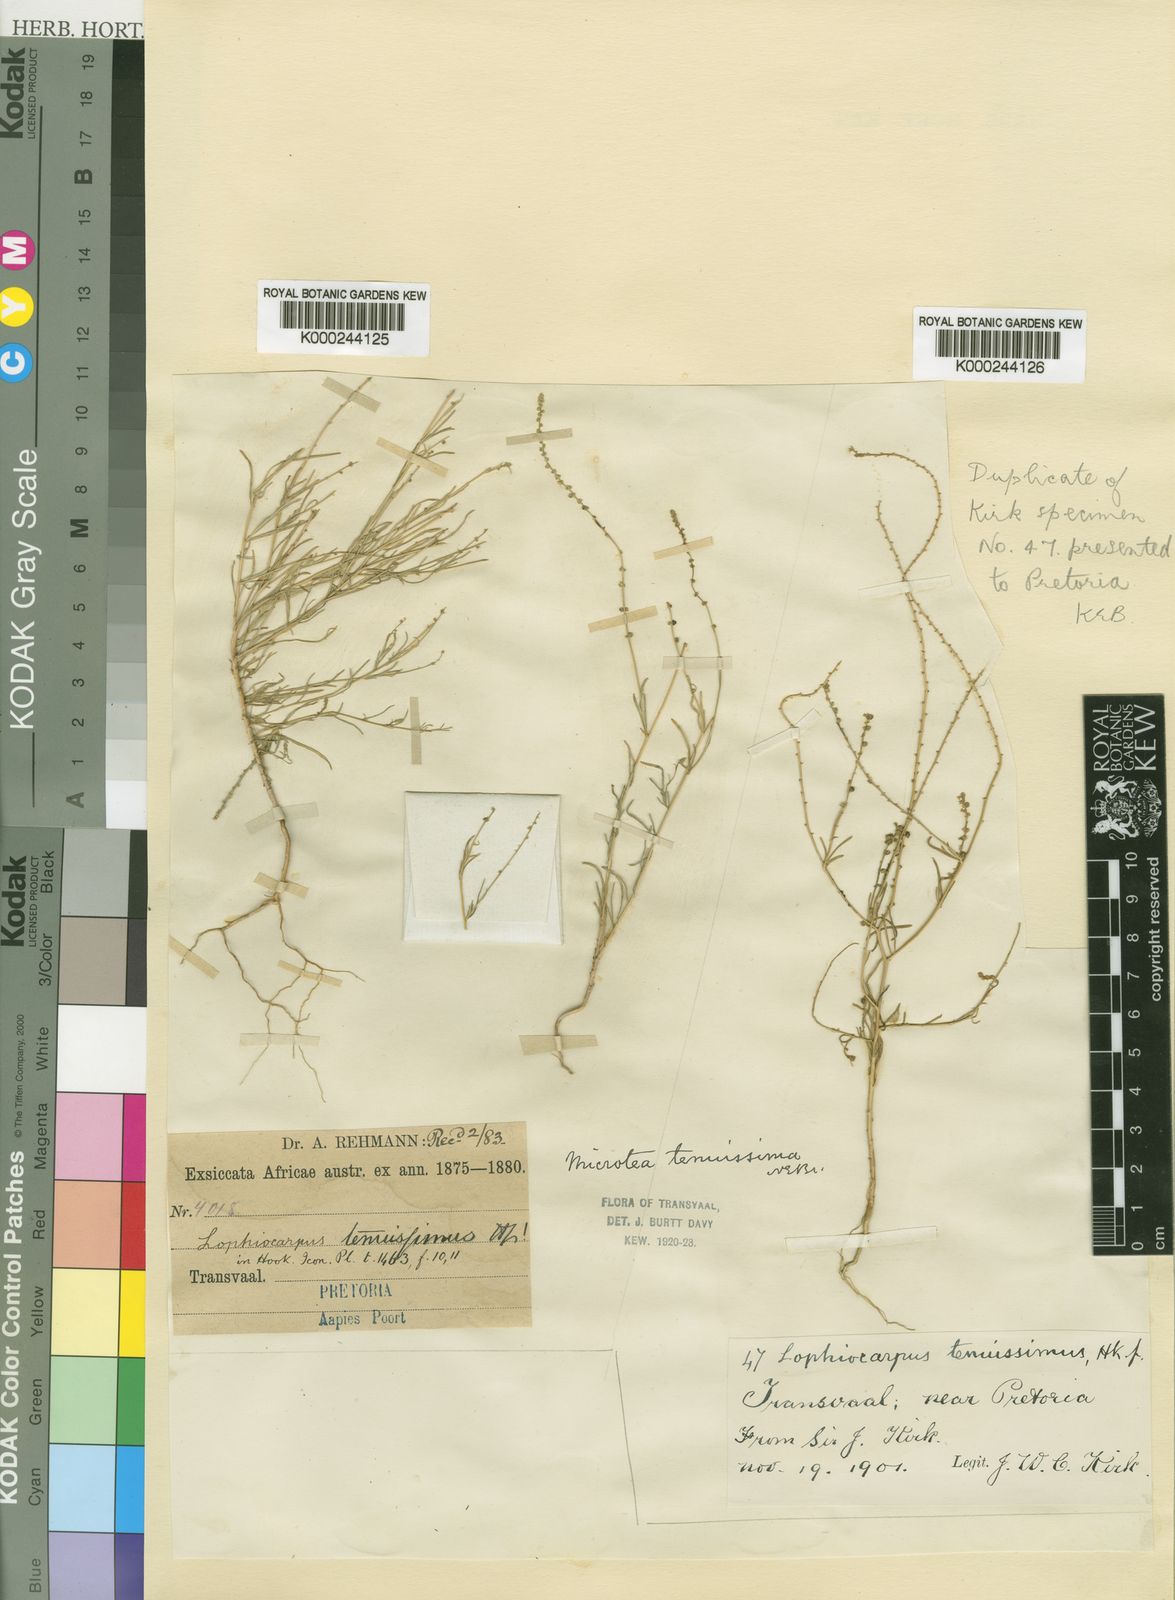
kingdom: Plantae
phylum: Tracheophyta
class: Magnoliopsida
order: Caryophyllales
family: Lophiocarpaceae
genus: Lophiocarpus
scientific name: Lophiocarpus tenuissimus
